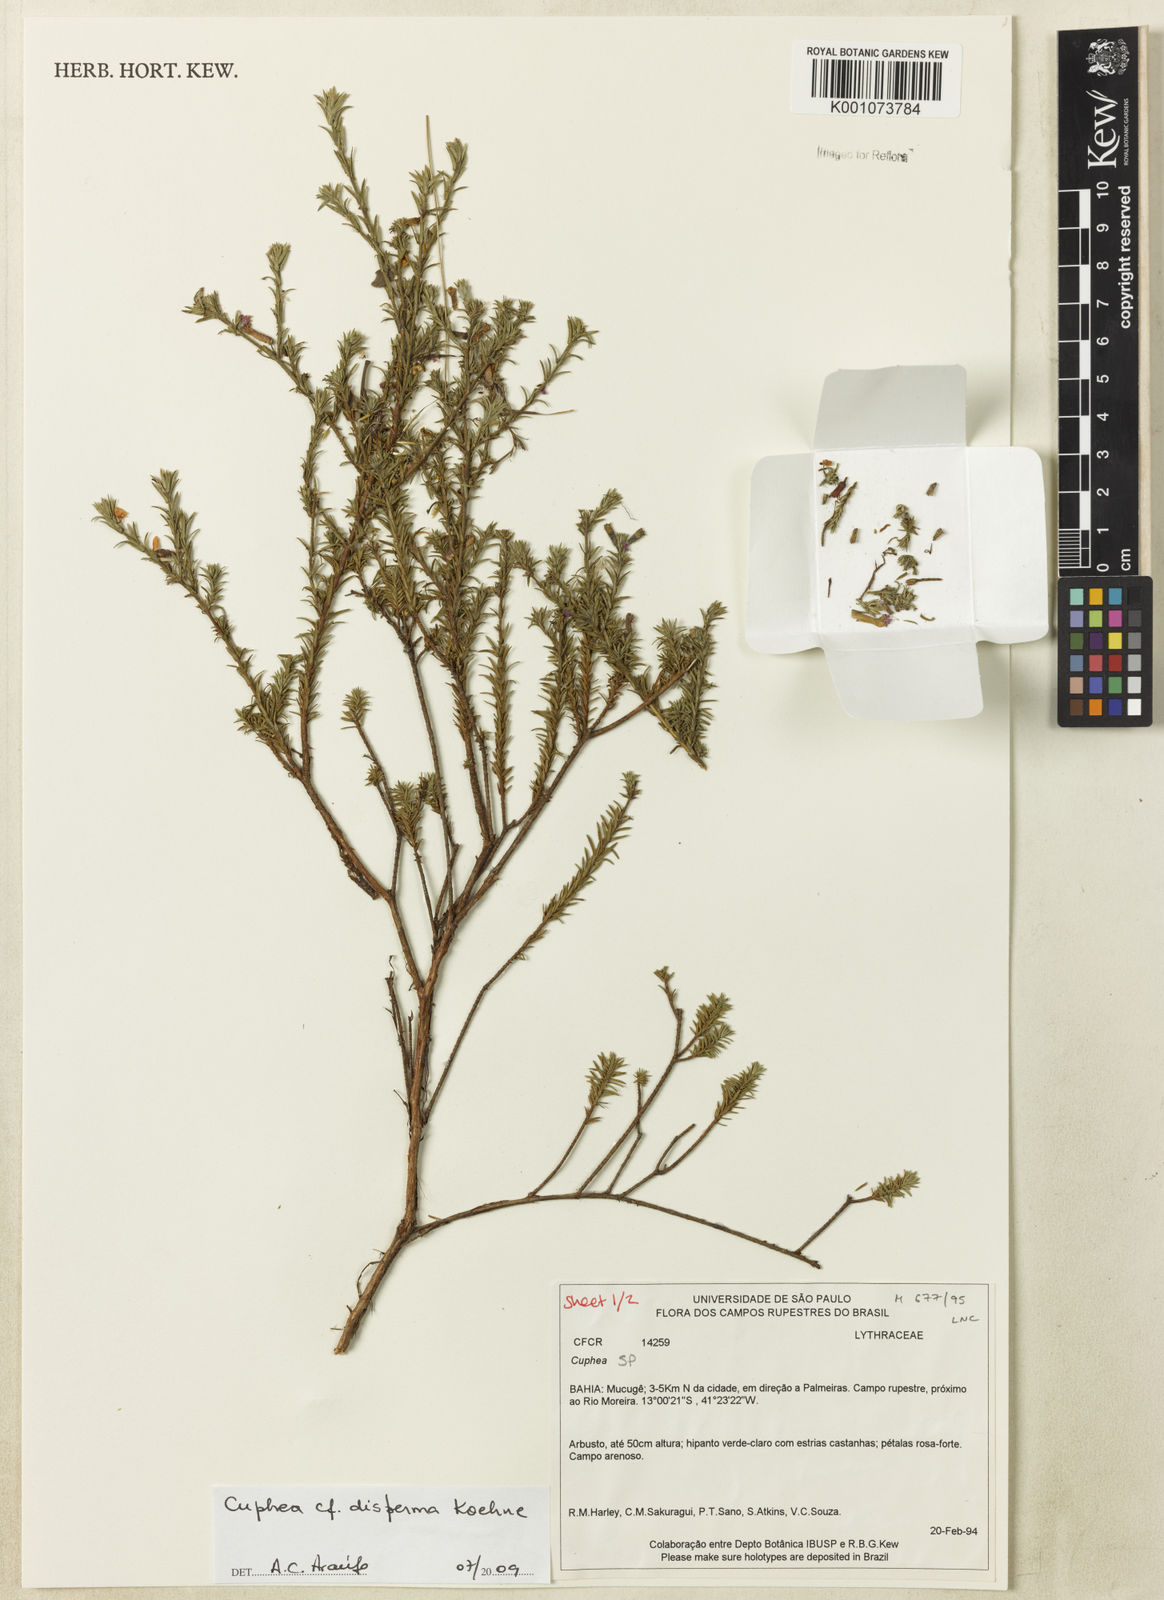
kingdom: Plantae
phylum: Tracheophyta
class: Magnoliopsida
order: Myrtales
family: Lythraceae
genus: Cuphea
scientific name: Cuphea disperma
